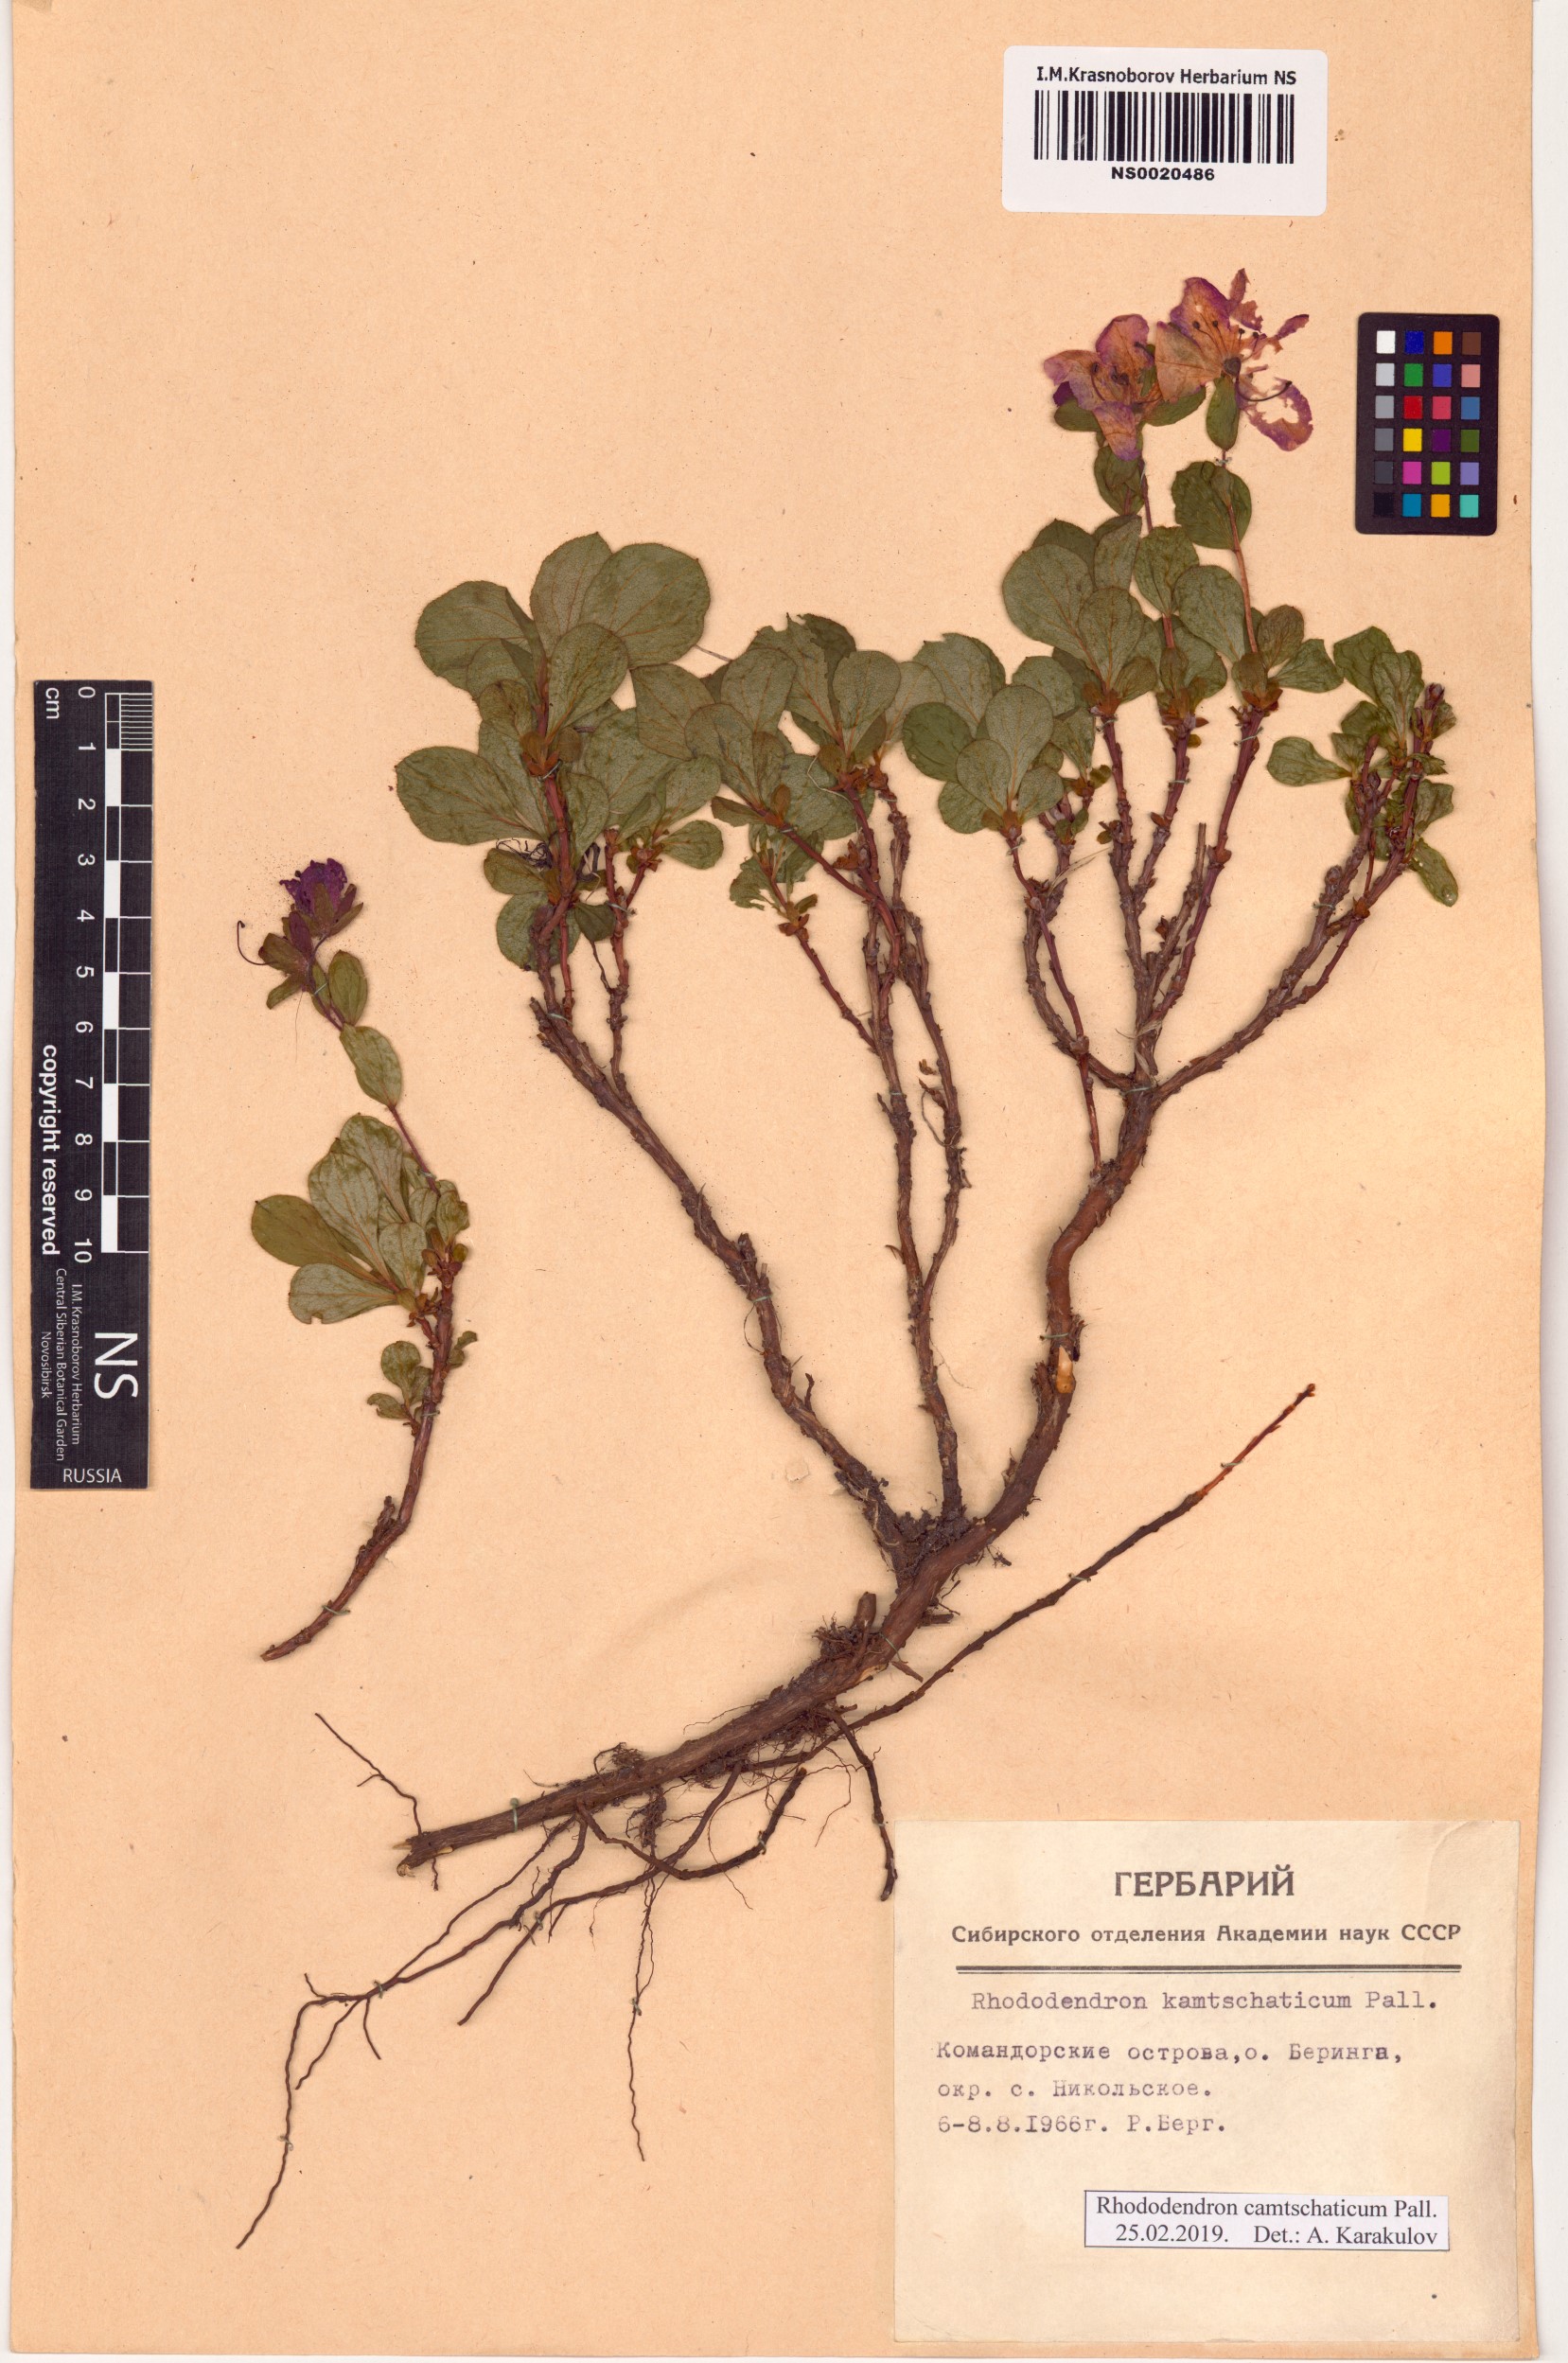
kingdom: Plantae
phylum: Tracheophyta
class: Magnoliopsida
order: Ericales
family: Ericaceae
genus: Rhododendron
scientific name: Rhododendron camtschaticum
